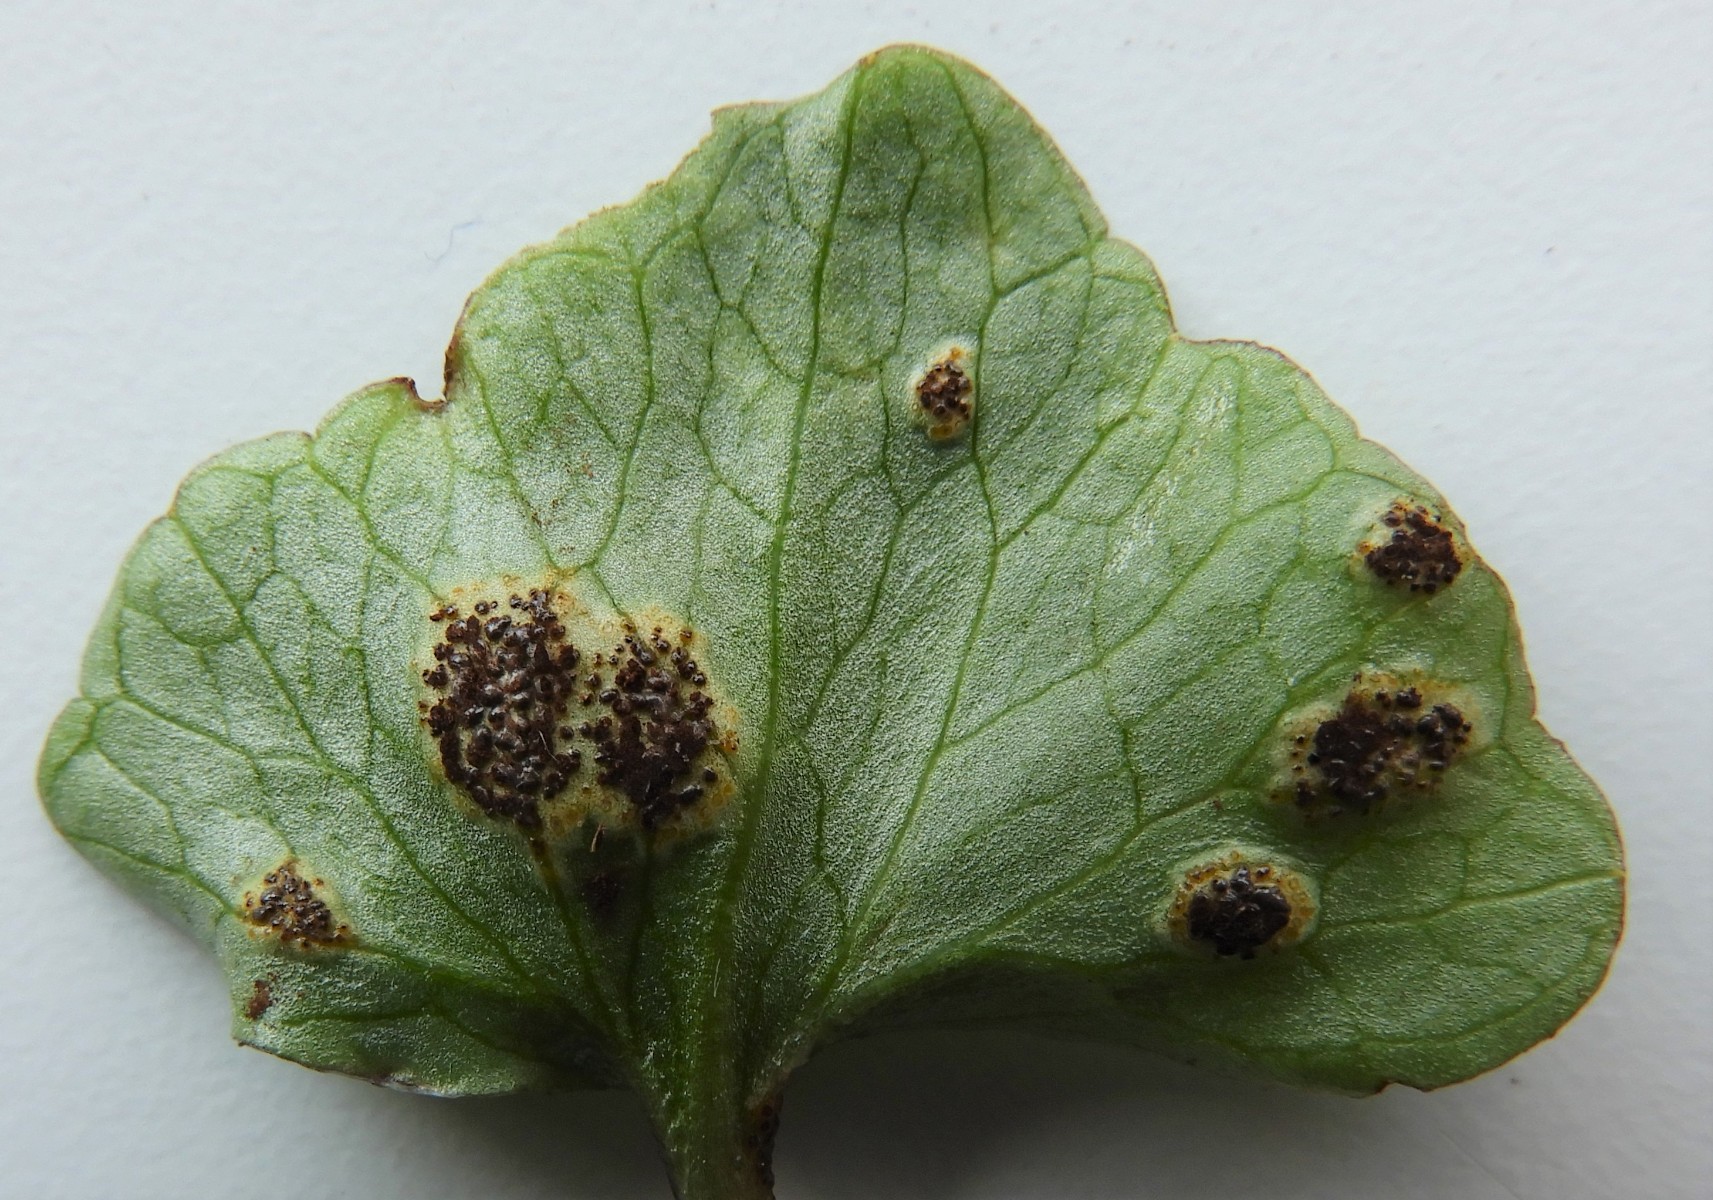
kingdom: Fungi
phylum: Basidiomycota
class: Pucciniomycetes
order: Pucciniales
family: Pucciniaceae
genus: Uromyces
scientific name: Uromyces ficariae
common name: vorterod-encellerust
